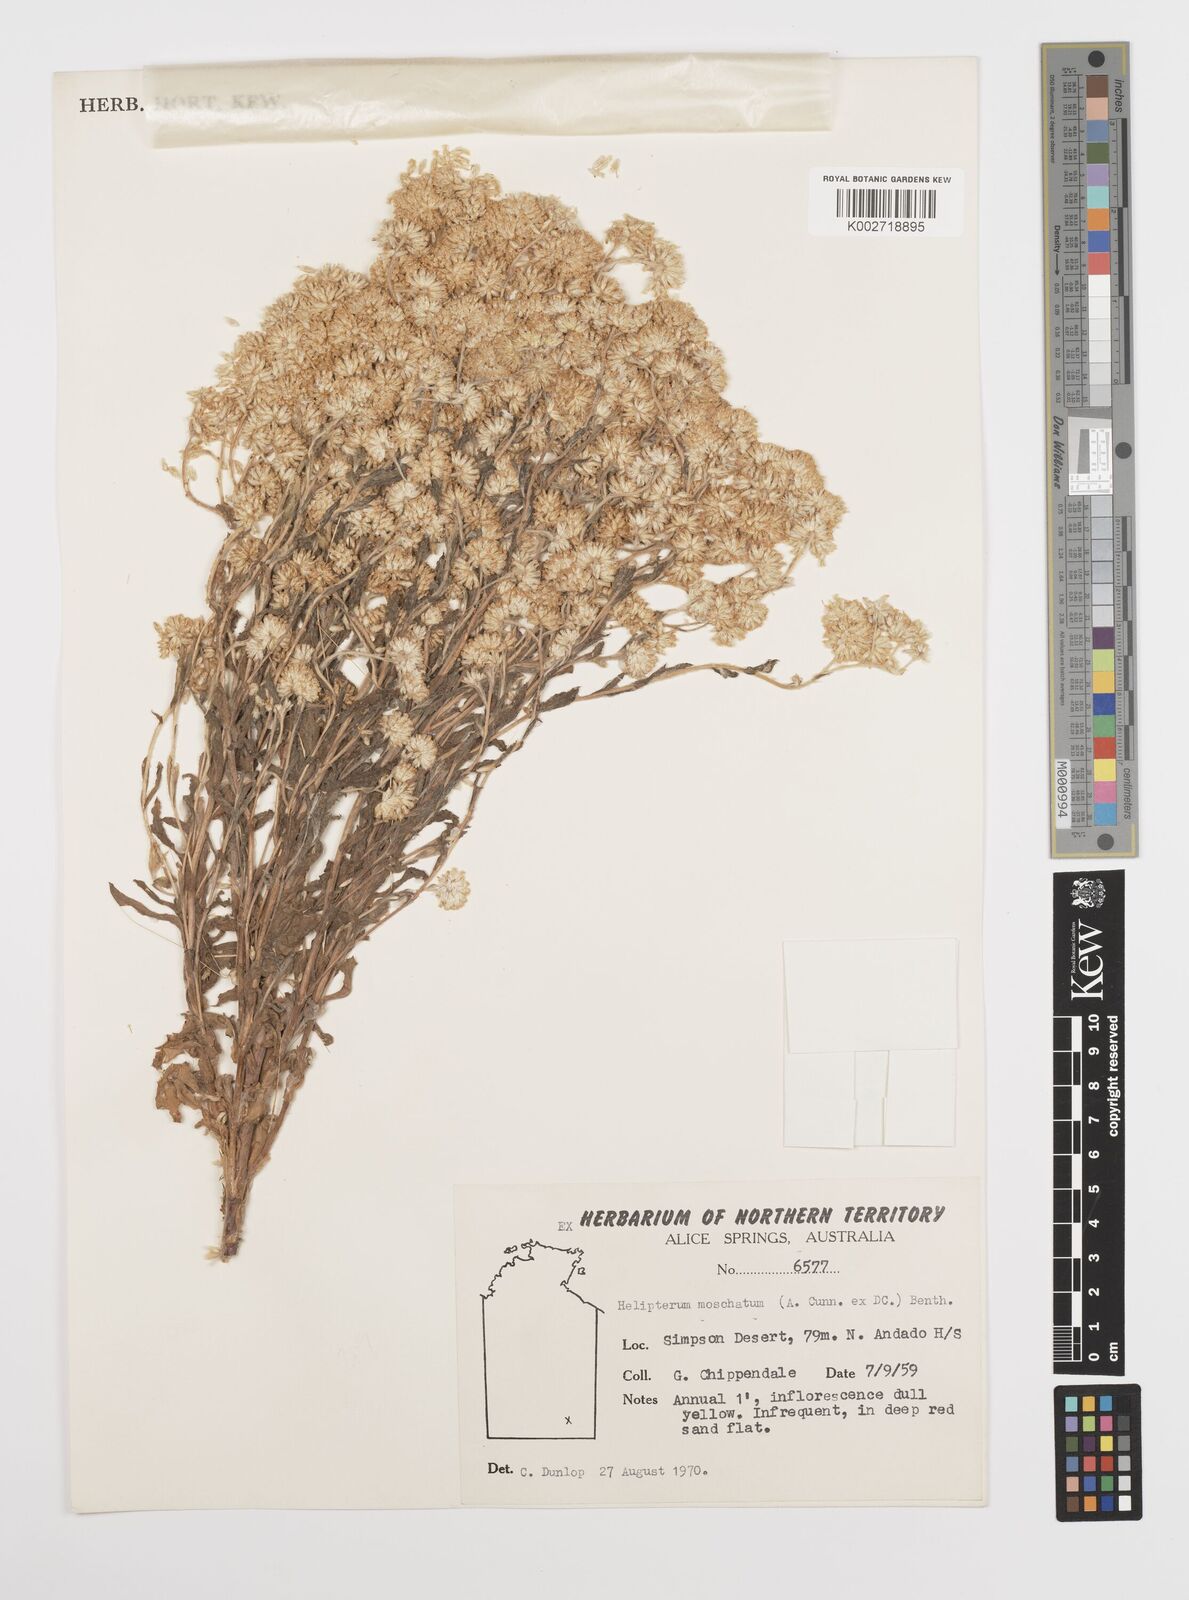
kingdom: Plantae
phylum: Tracheophyta
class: Magnoliopsida
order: Asterales
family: Asteraceae
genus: Rhodanthe
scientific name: Rhodanthe moschata
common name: Musk sunray
